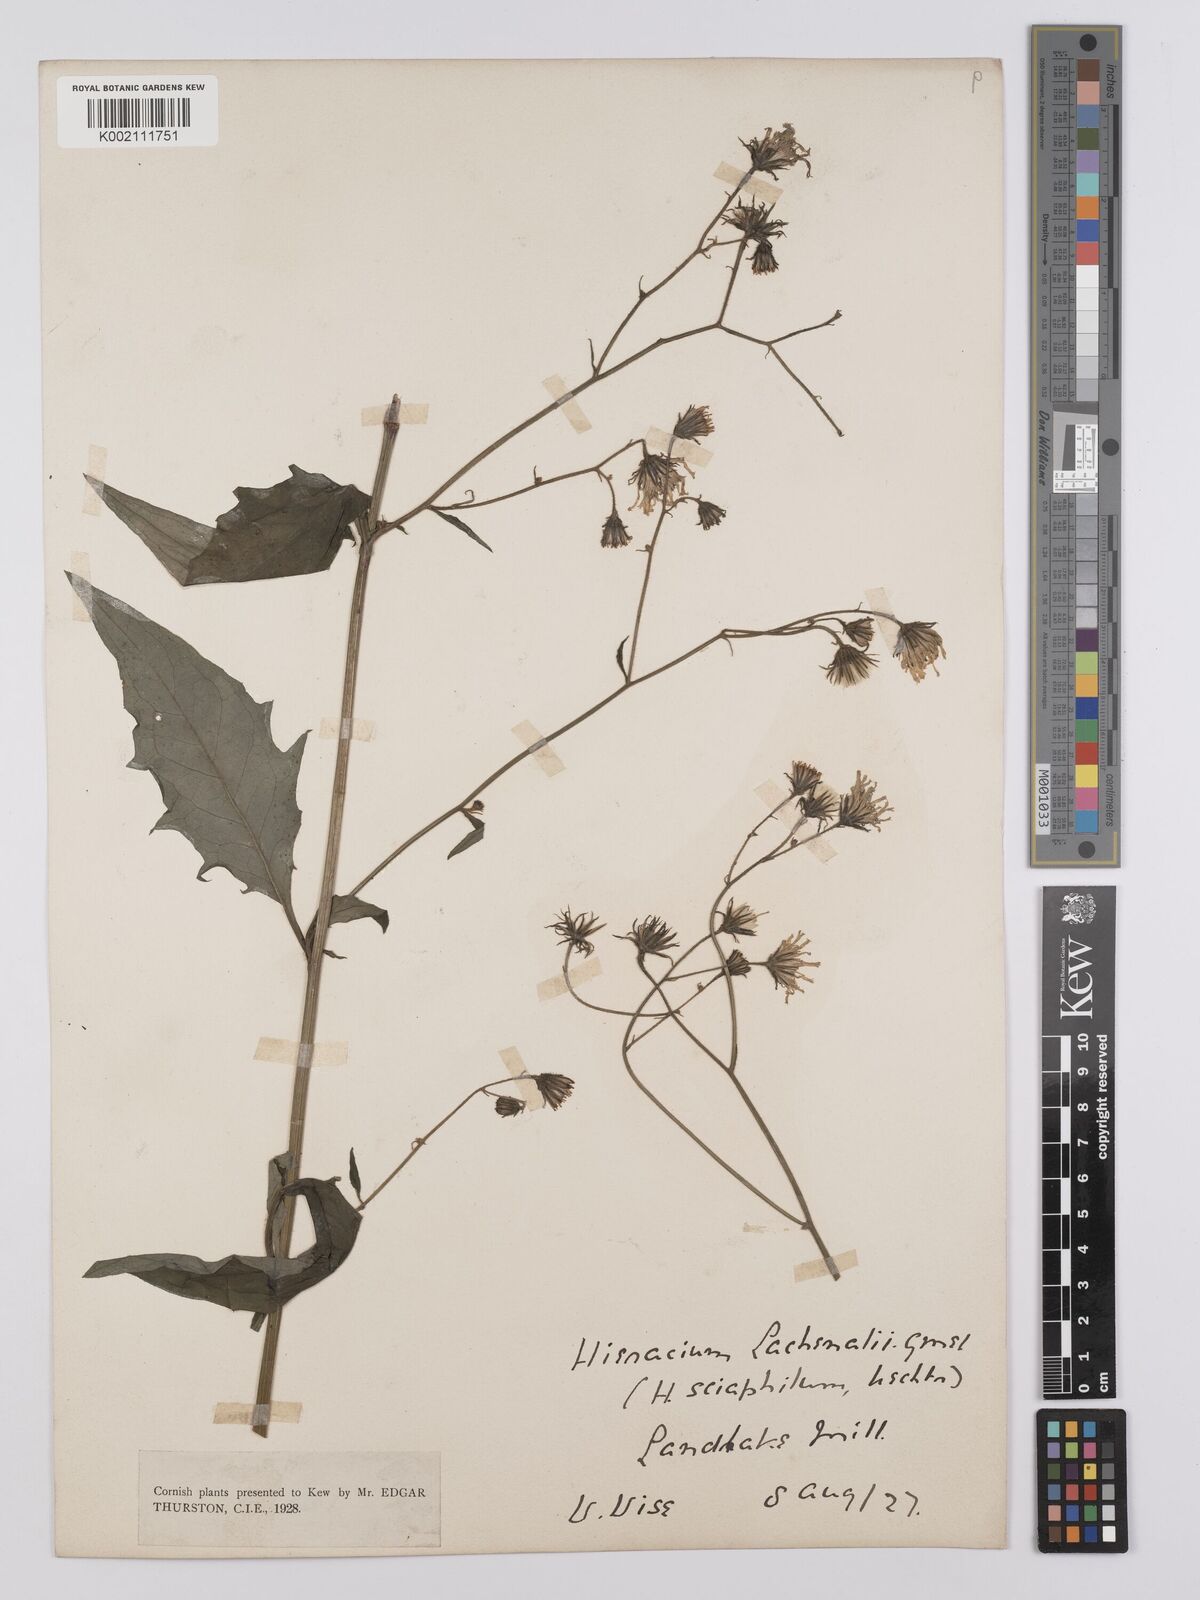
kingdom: Plantae
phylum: Tracheophyta
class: Magnoliopsida
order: Asterales
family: Asteraceae
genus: Hieracium
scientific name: Hieracium lachenalii
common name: Common hawkweed
